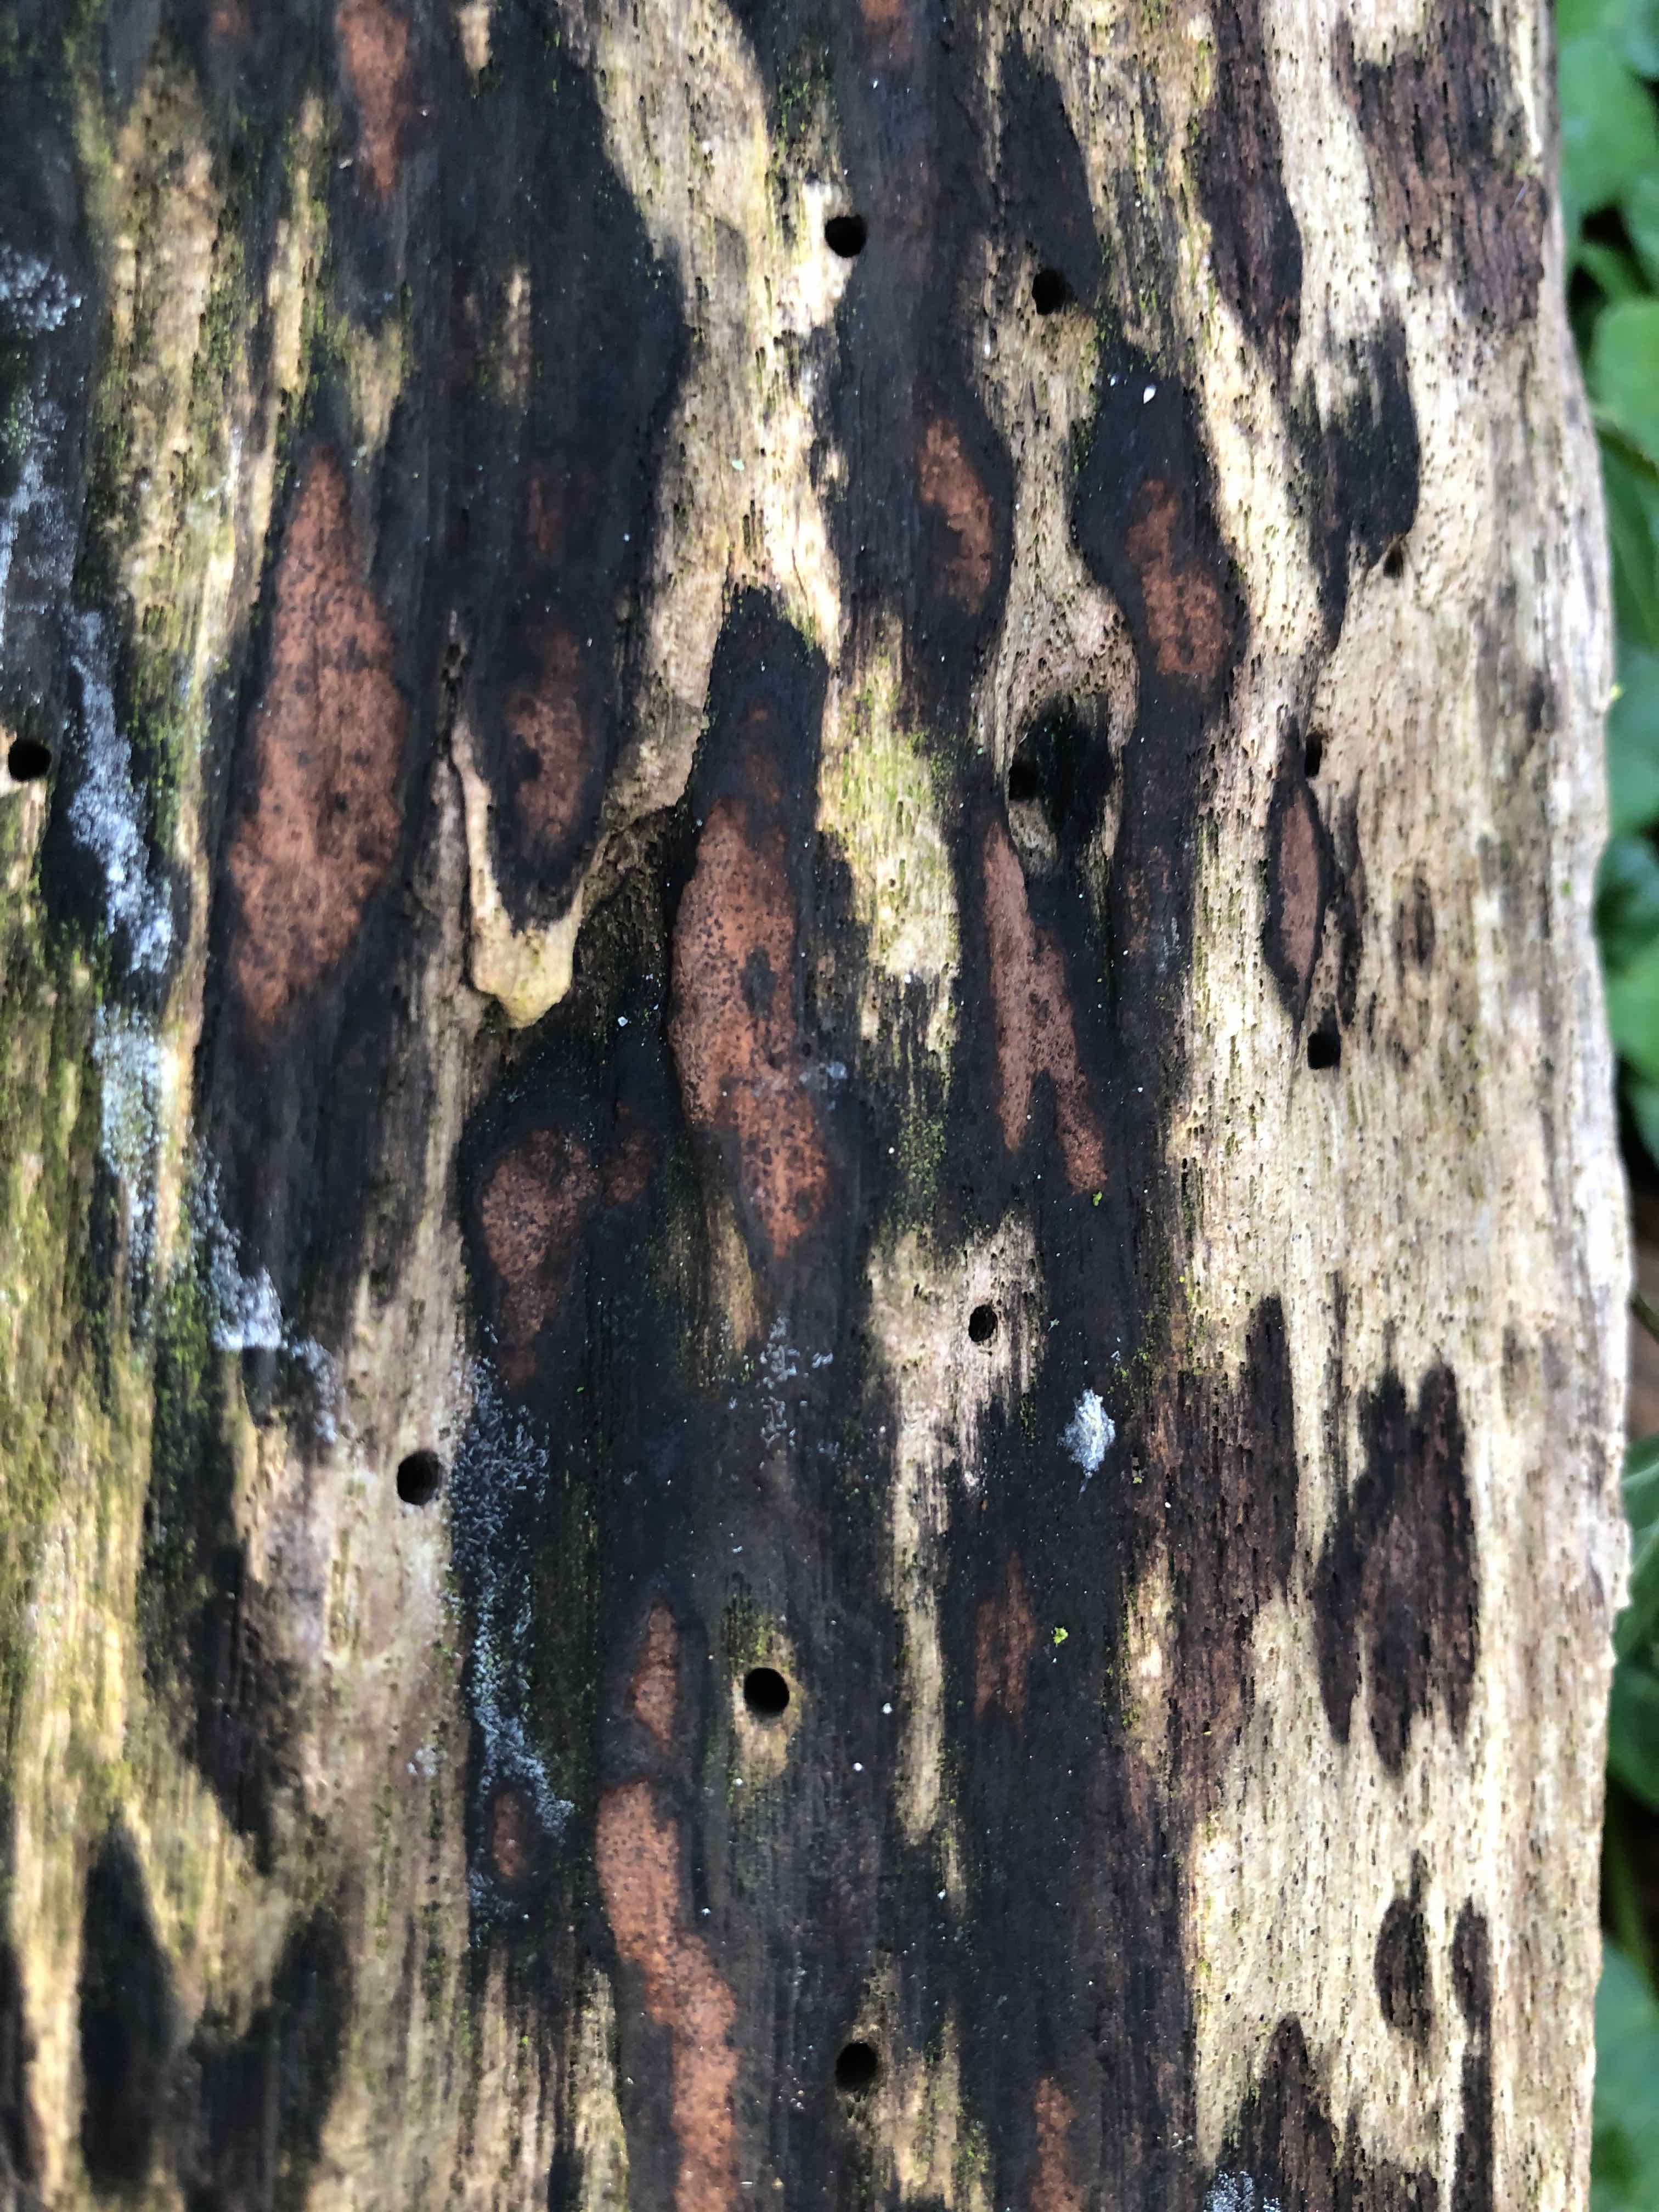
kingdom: Fungi
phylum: Ascomycota
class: Sordariomycetes
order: Xylariales
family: Hypoxylaceae
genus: Hypoxylon
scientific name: Hypoxylon petriniae
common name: nedsænket kulbær
